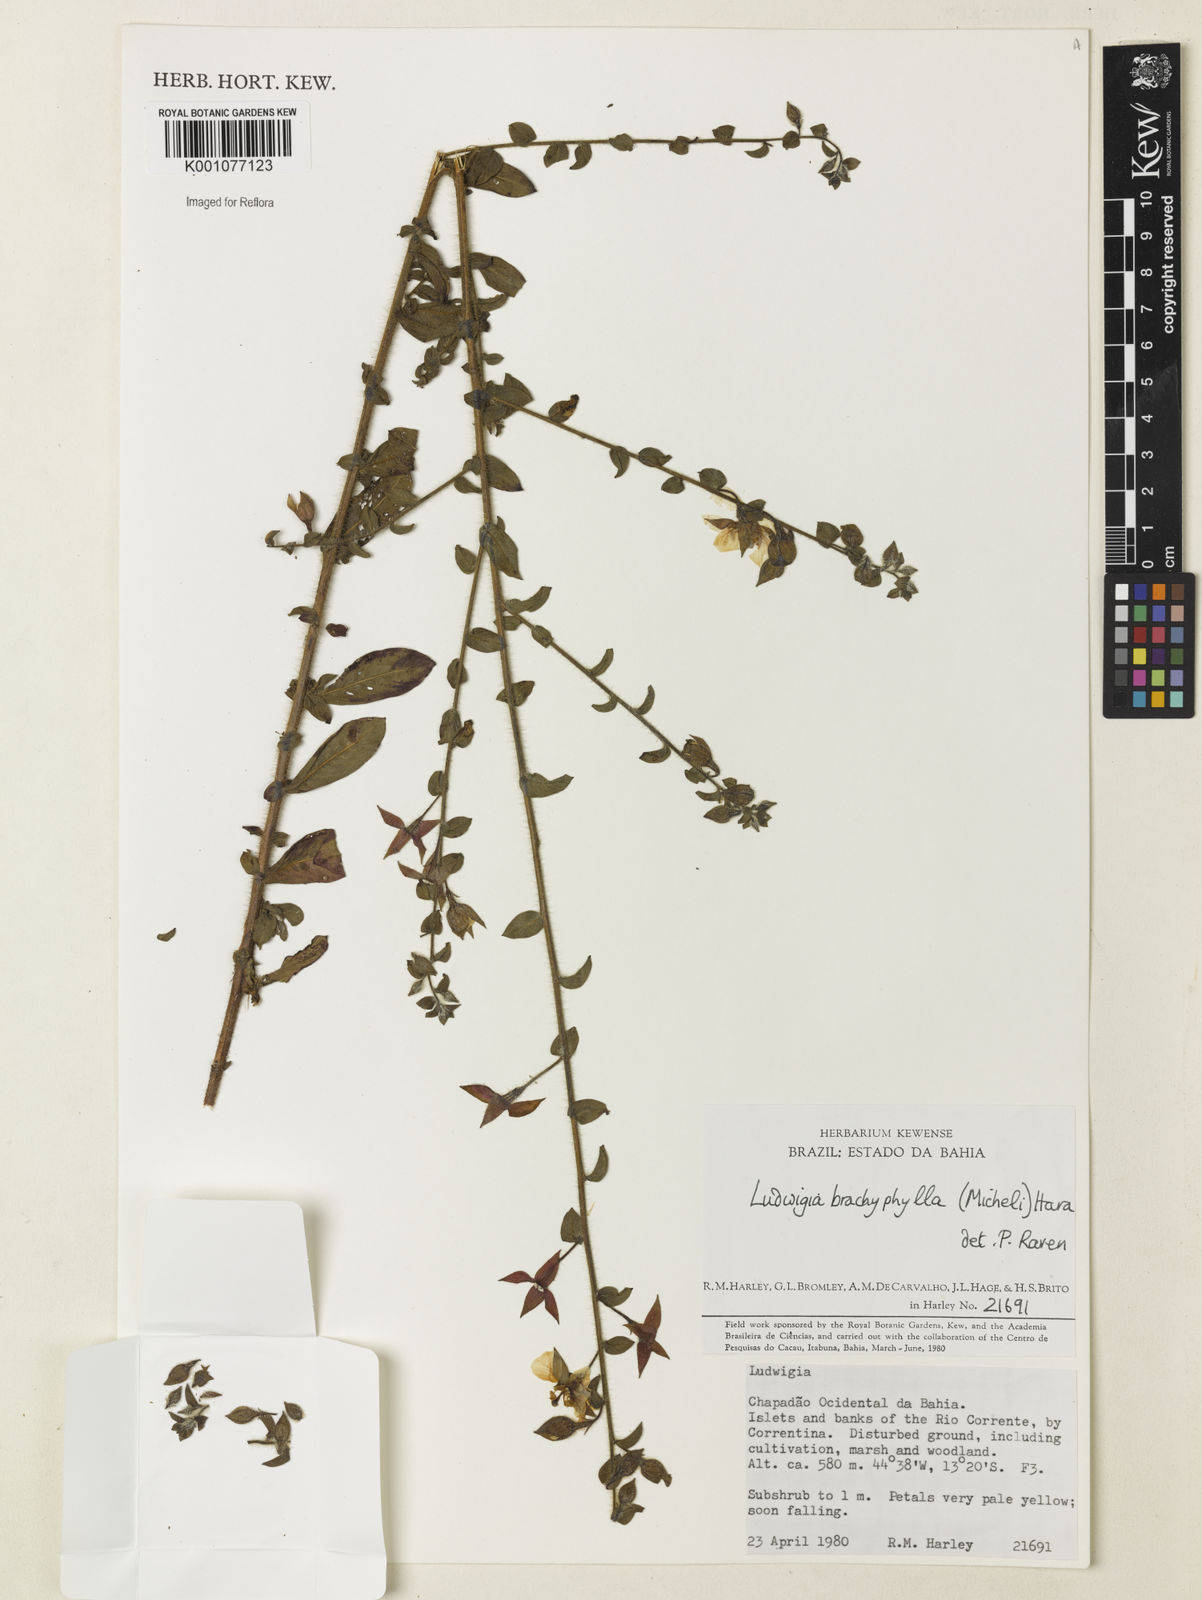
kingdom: Plantae
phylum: Tracheophyta
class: Magnoliopsida
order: Myrtales
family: Onagraceae
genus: Ludwigia
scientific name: Ludwigia brachyphylla
